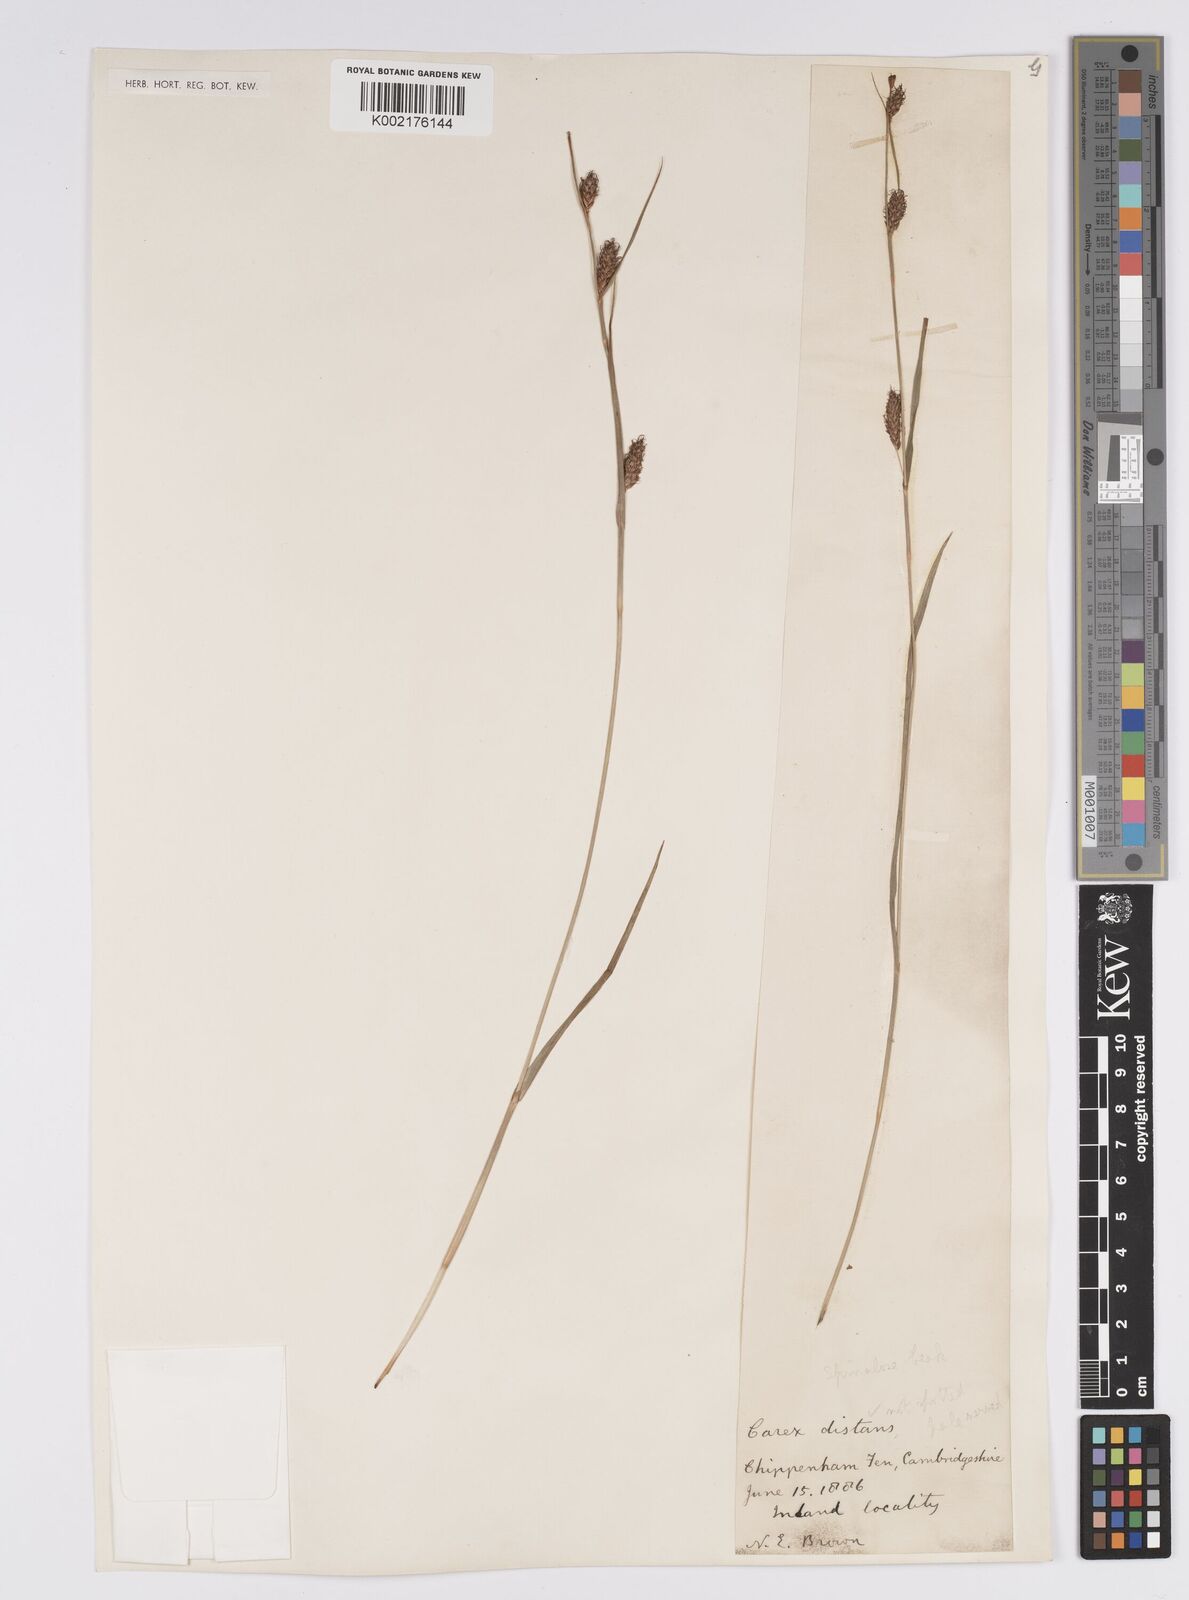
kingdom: Plantae
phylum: Tracheophyta
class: Liliopsida
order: Poales
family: Cyperaceae
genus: Carex
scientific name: Carex distans
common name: Distant sedge
